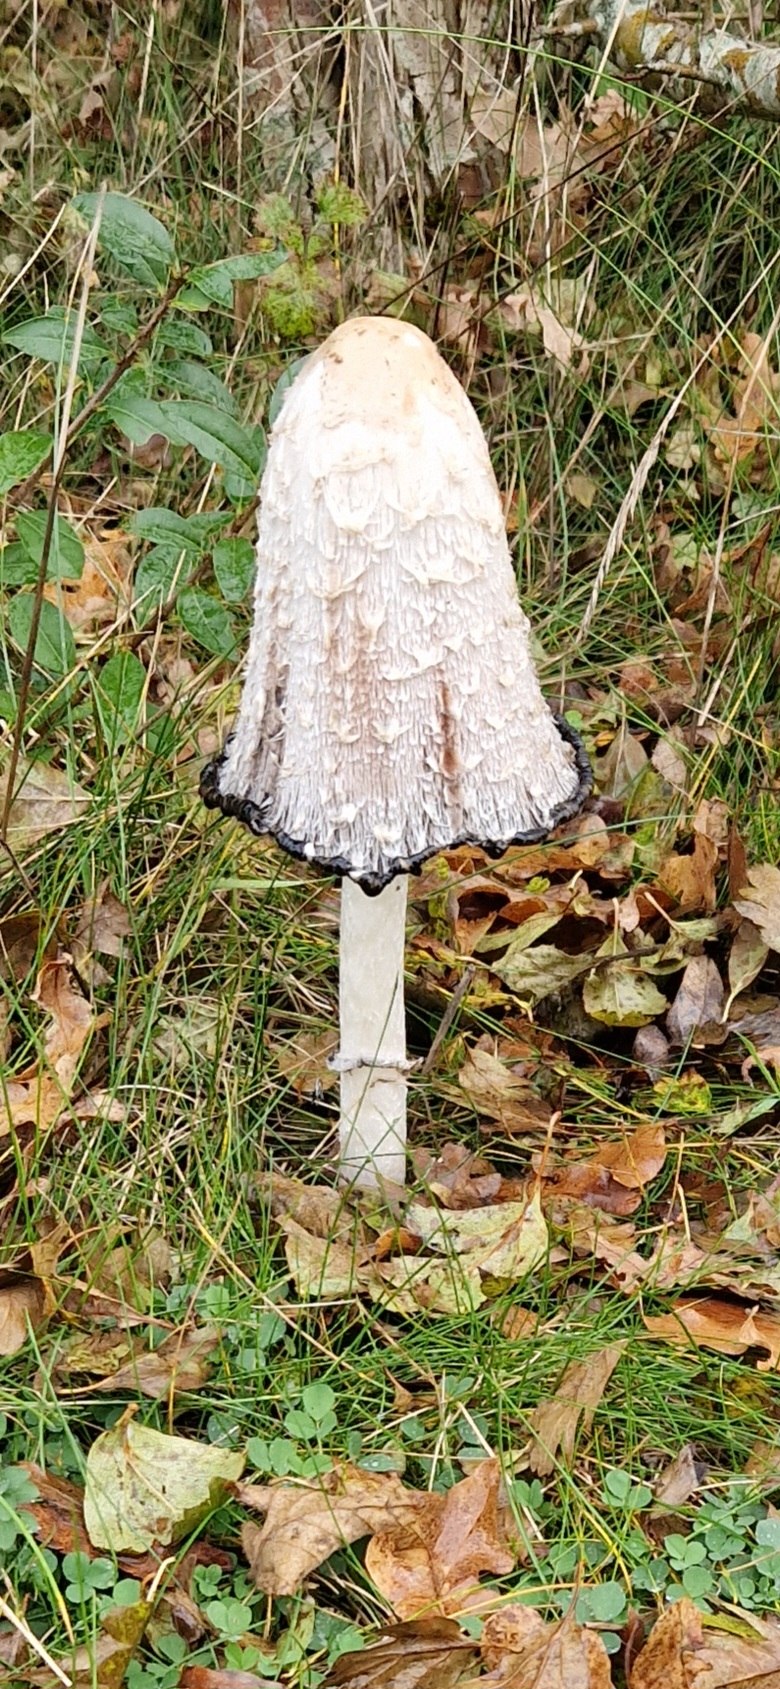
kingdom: Fungi
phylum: Basidiomycota
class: Agaricomycetes
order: Agaricales
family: Agaricaceae
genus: Coprinus
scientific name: Coprinus comatus
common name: stor parykhat
